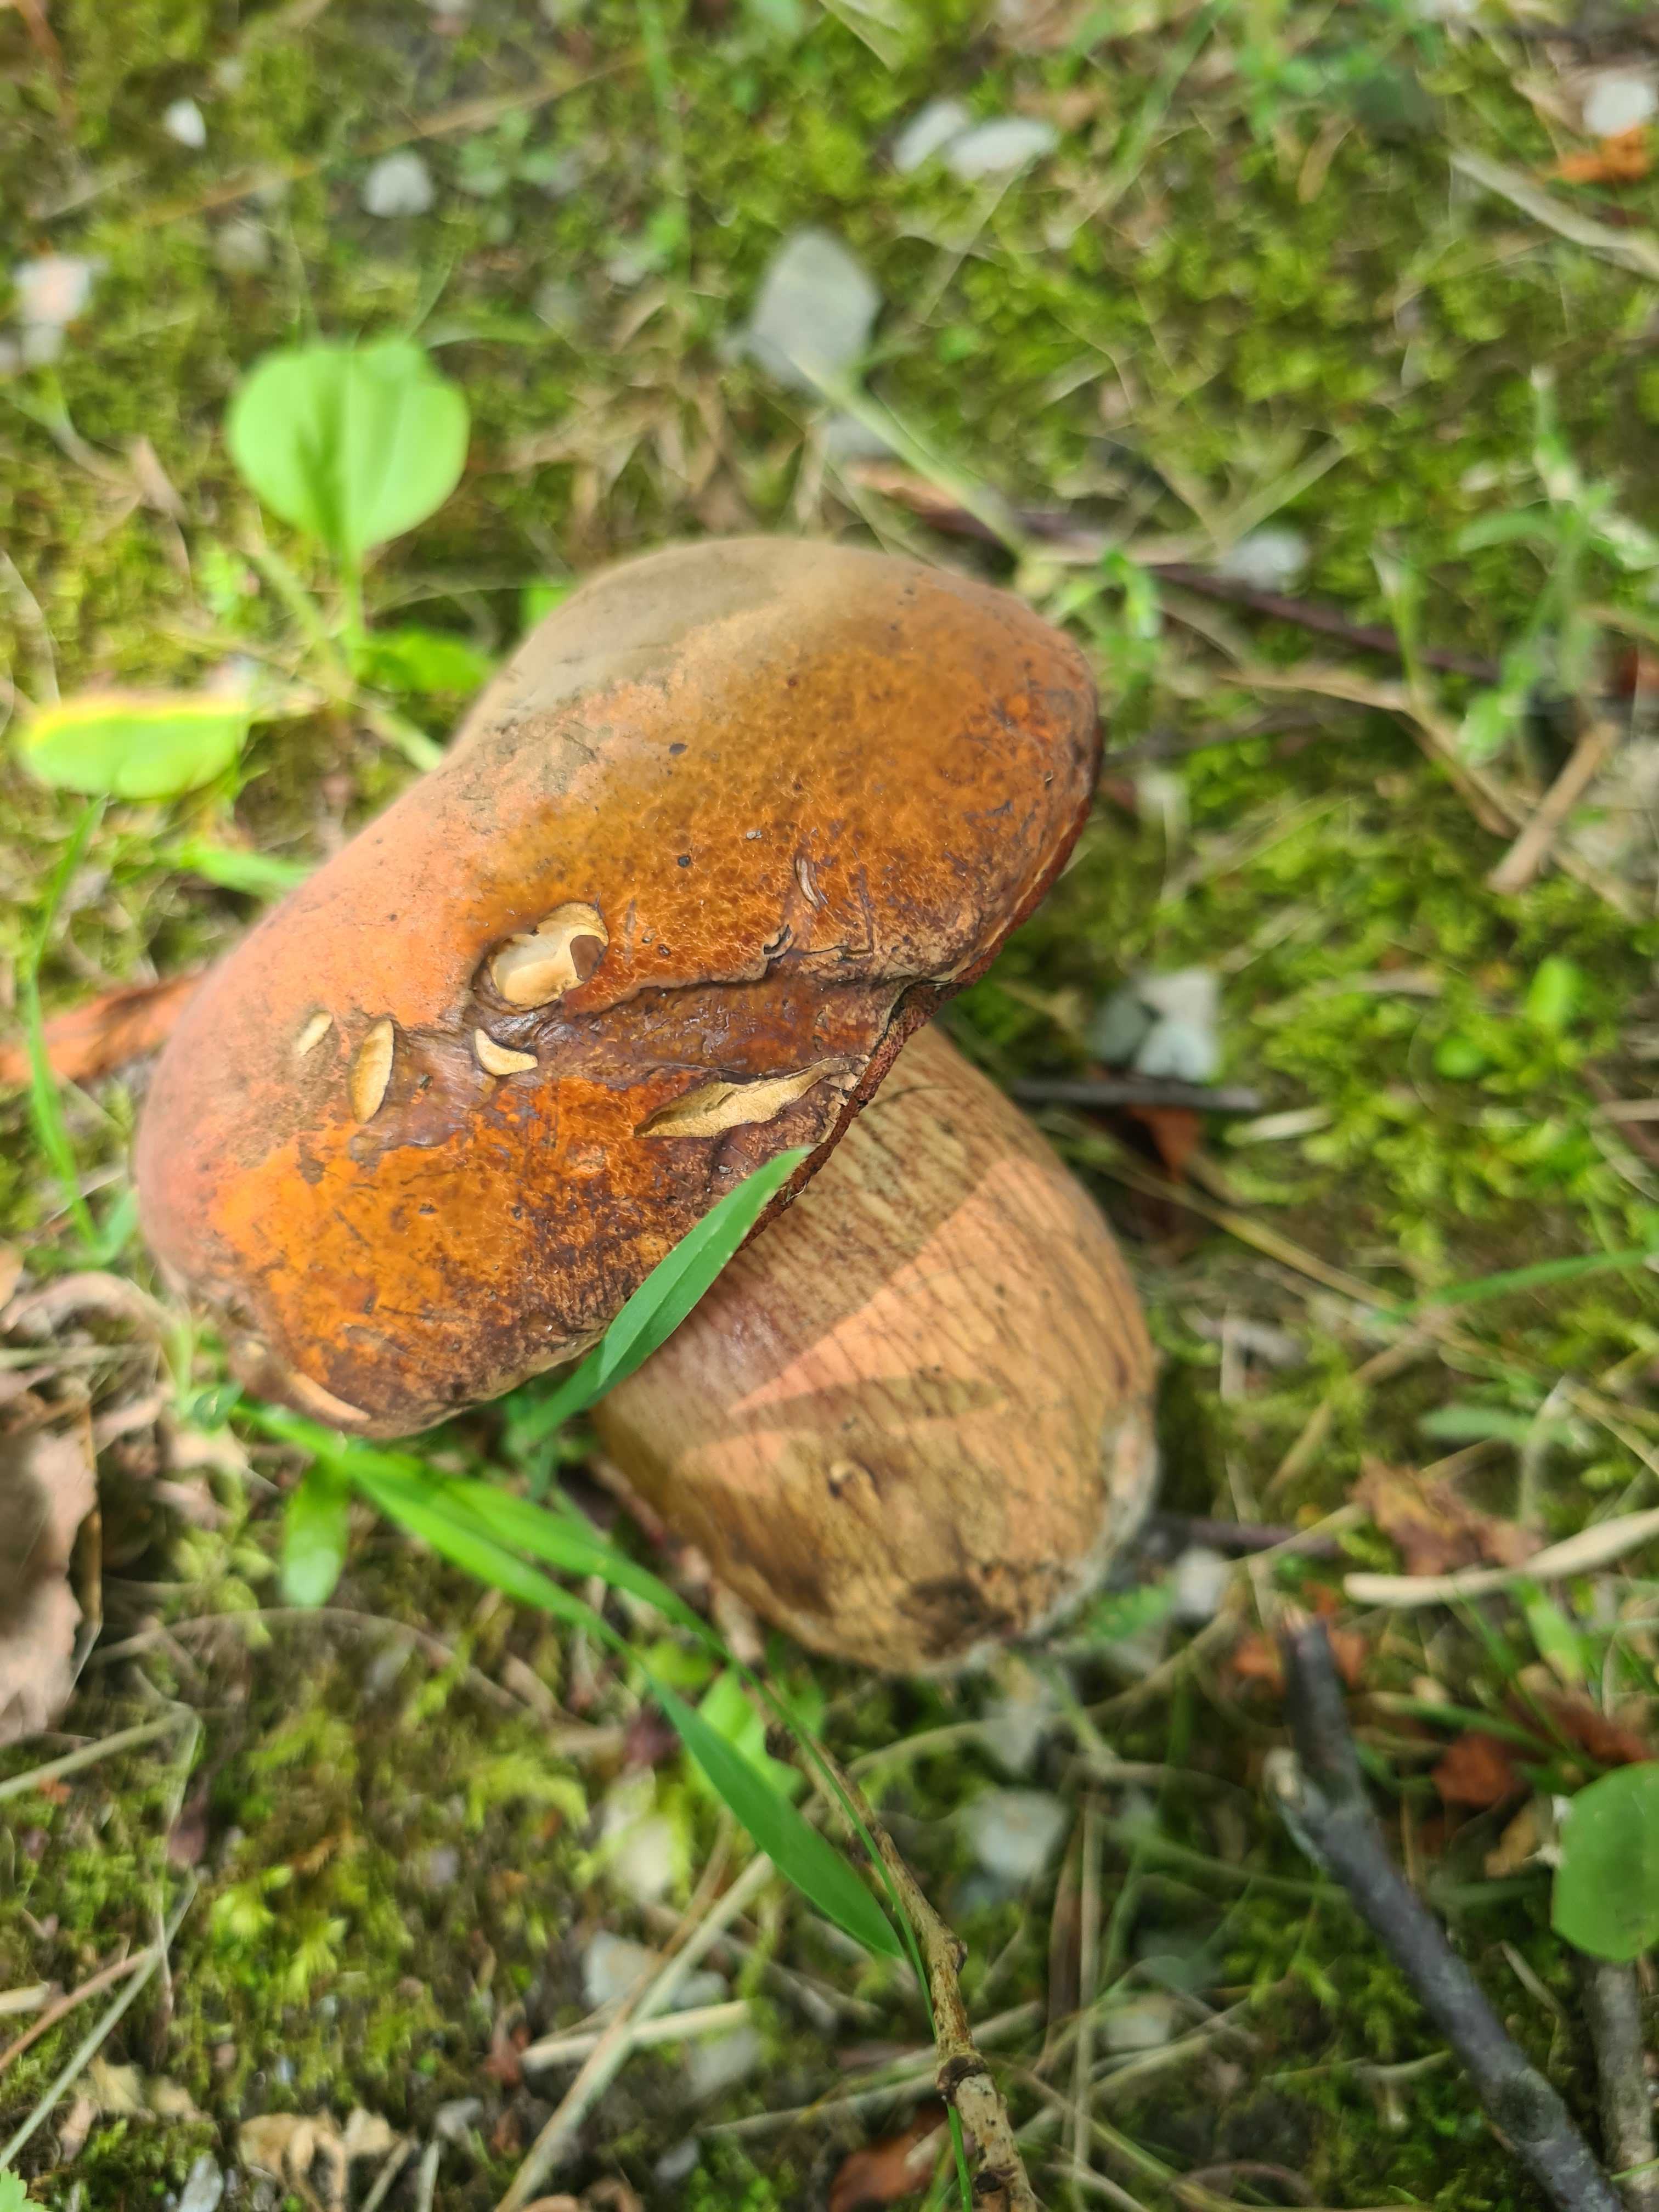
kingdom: Fungi
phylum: Basidiomycota
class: Agaricomycetes
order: Boletales
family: Boletaceae
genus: Suillellus
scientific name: Suillellus luridus
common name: netstokket indigorørhat
